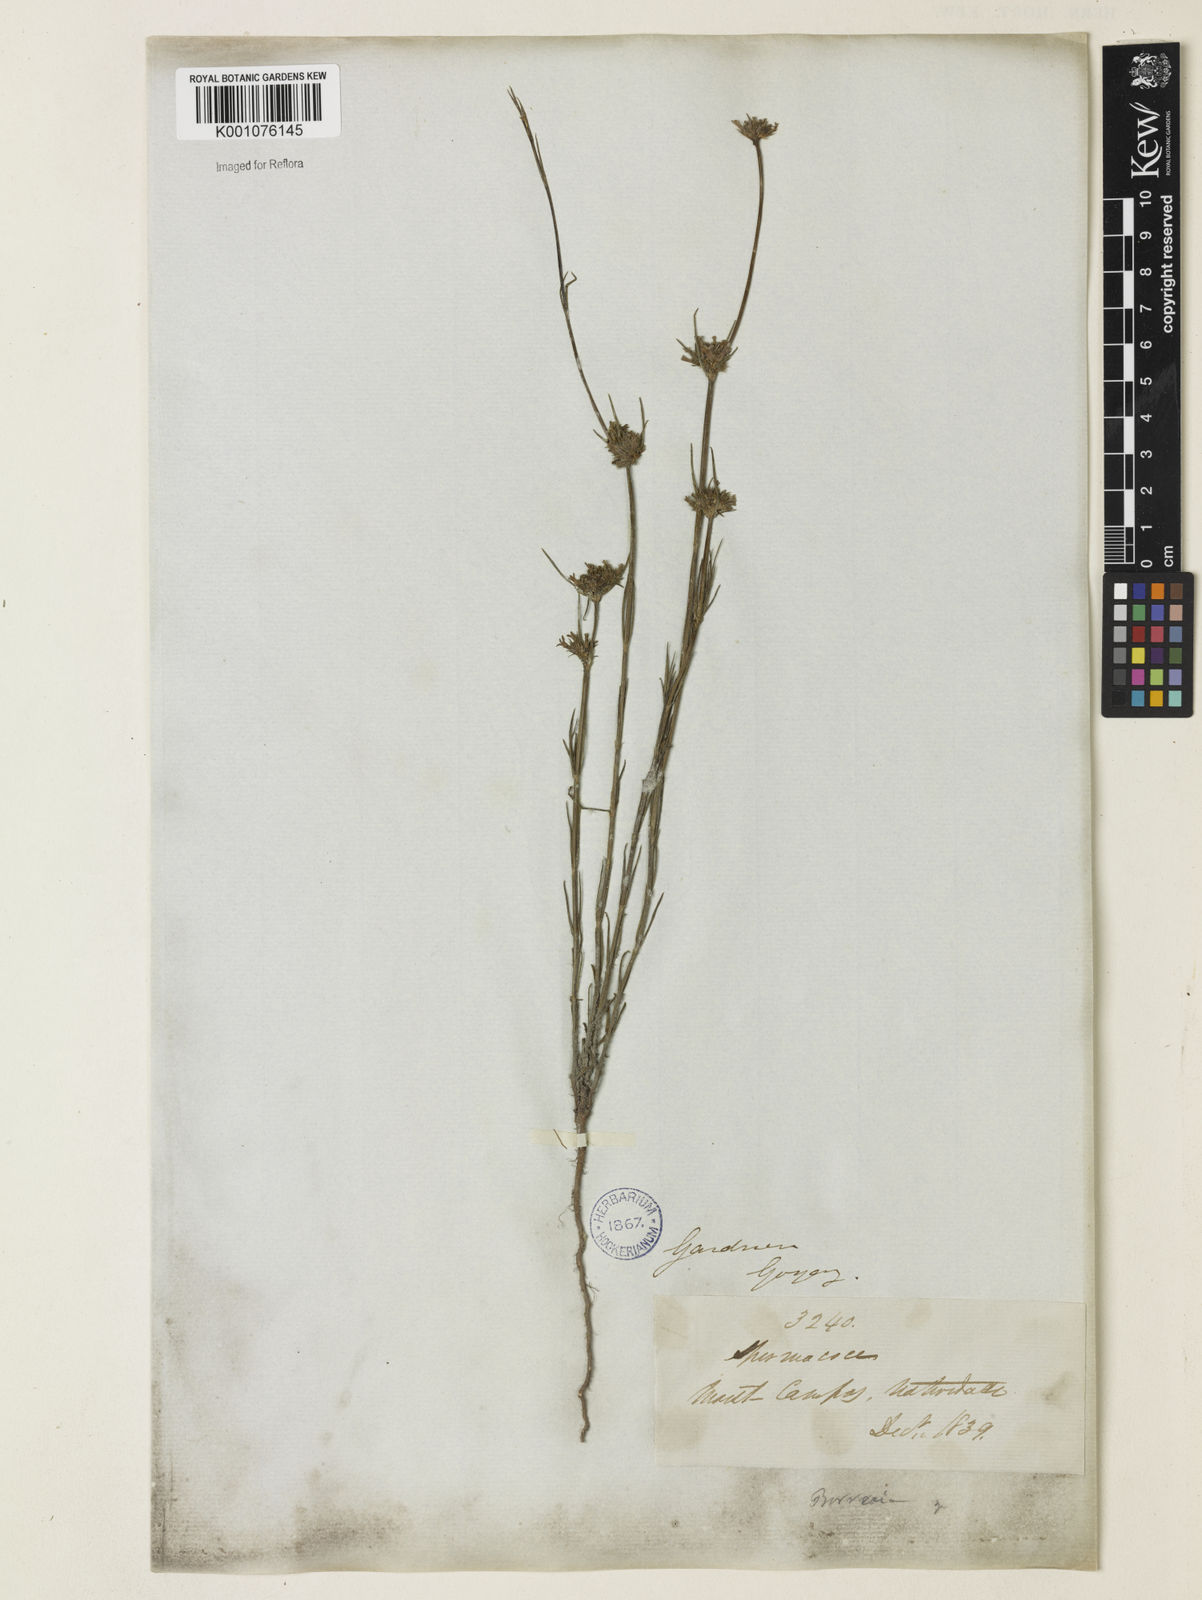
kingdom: Plantae
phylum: Tracheophyta
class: Magnoliopsida
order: Gentianales
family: Rubiaceae
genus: Spermacoce
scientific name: Spermacoce gracillima
